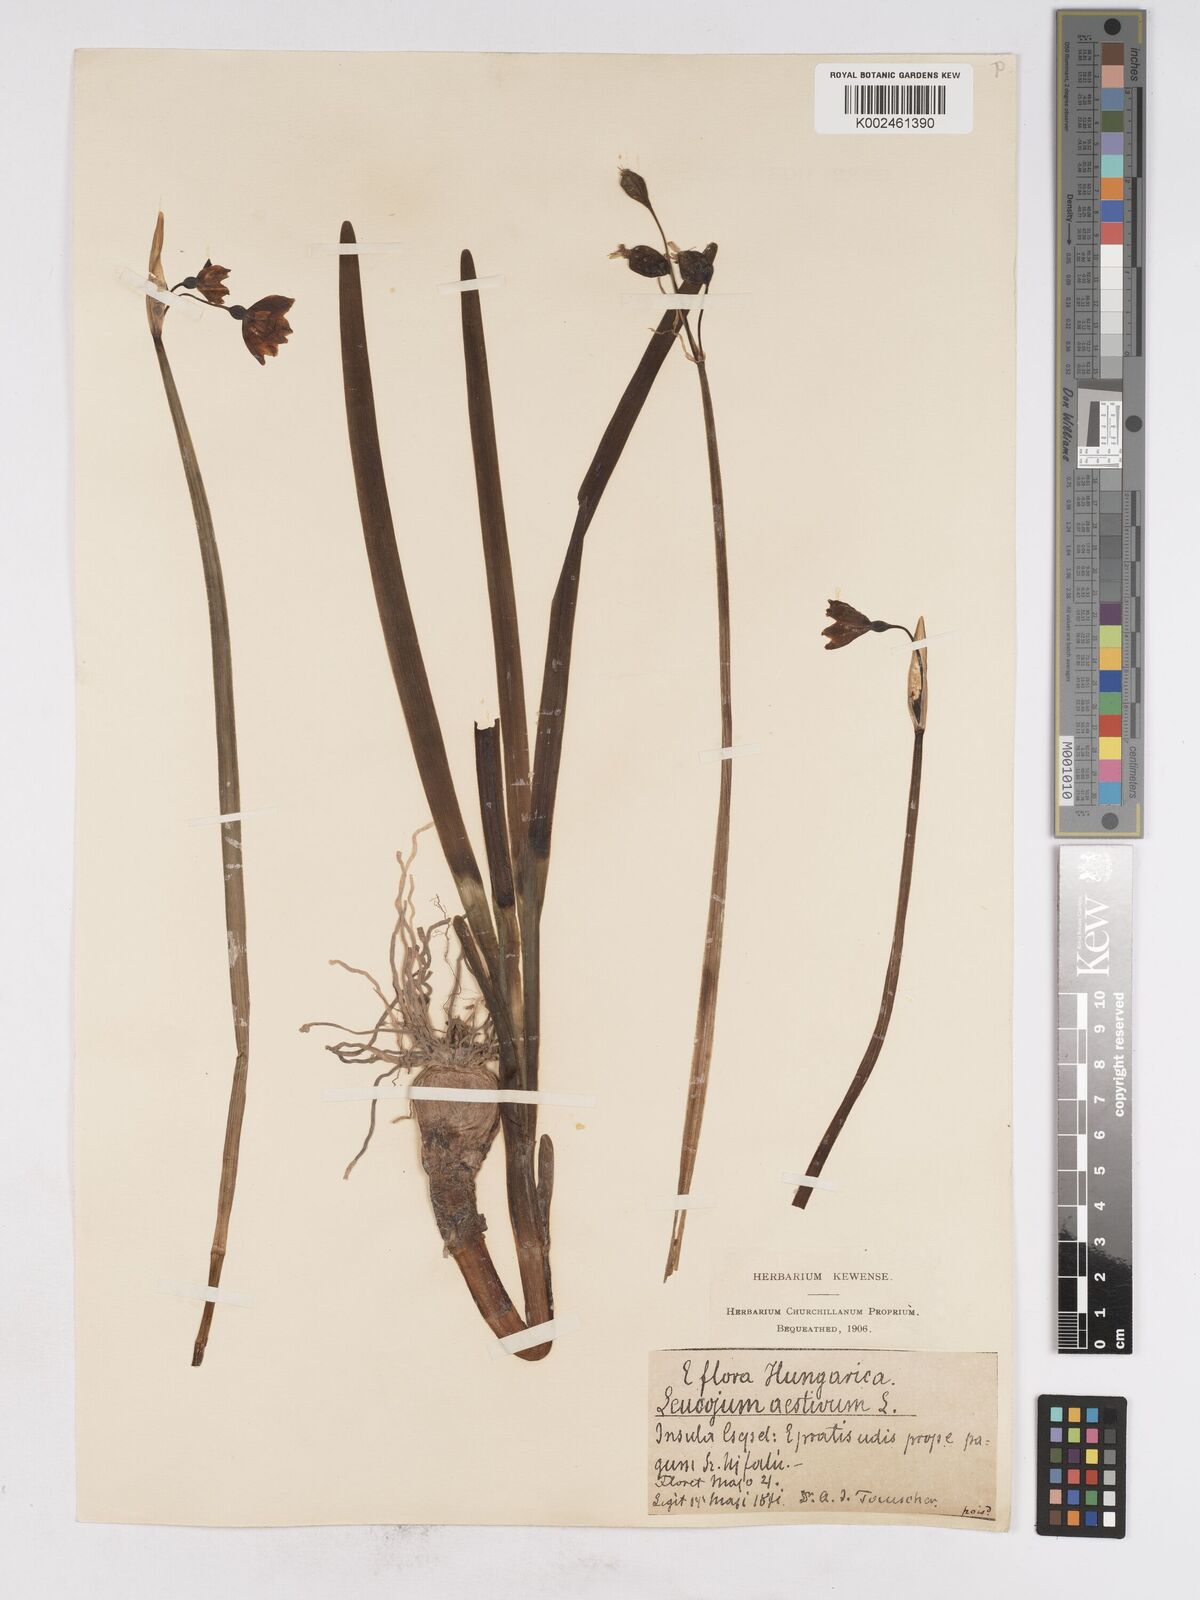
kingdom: Plantae
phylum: Tracheophyta
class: Liliopsida
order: Asparagales
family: Amaryllidaceae
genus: Leucojum
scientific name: Leucojum aestivum
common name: Summer snowflake
